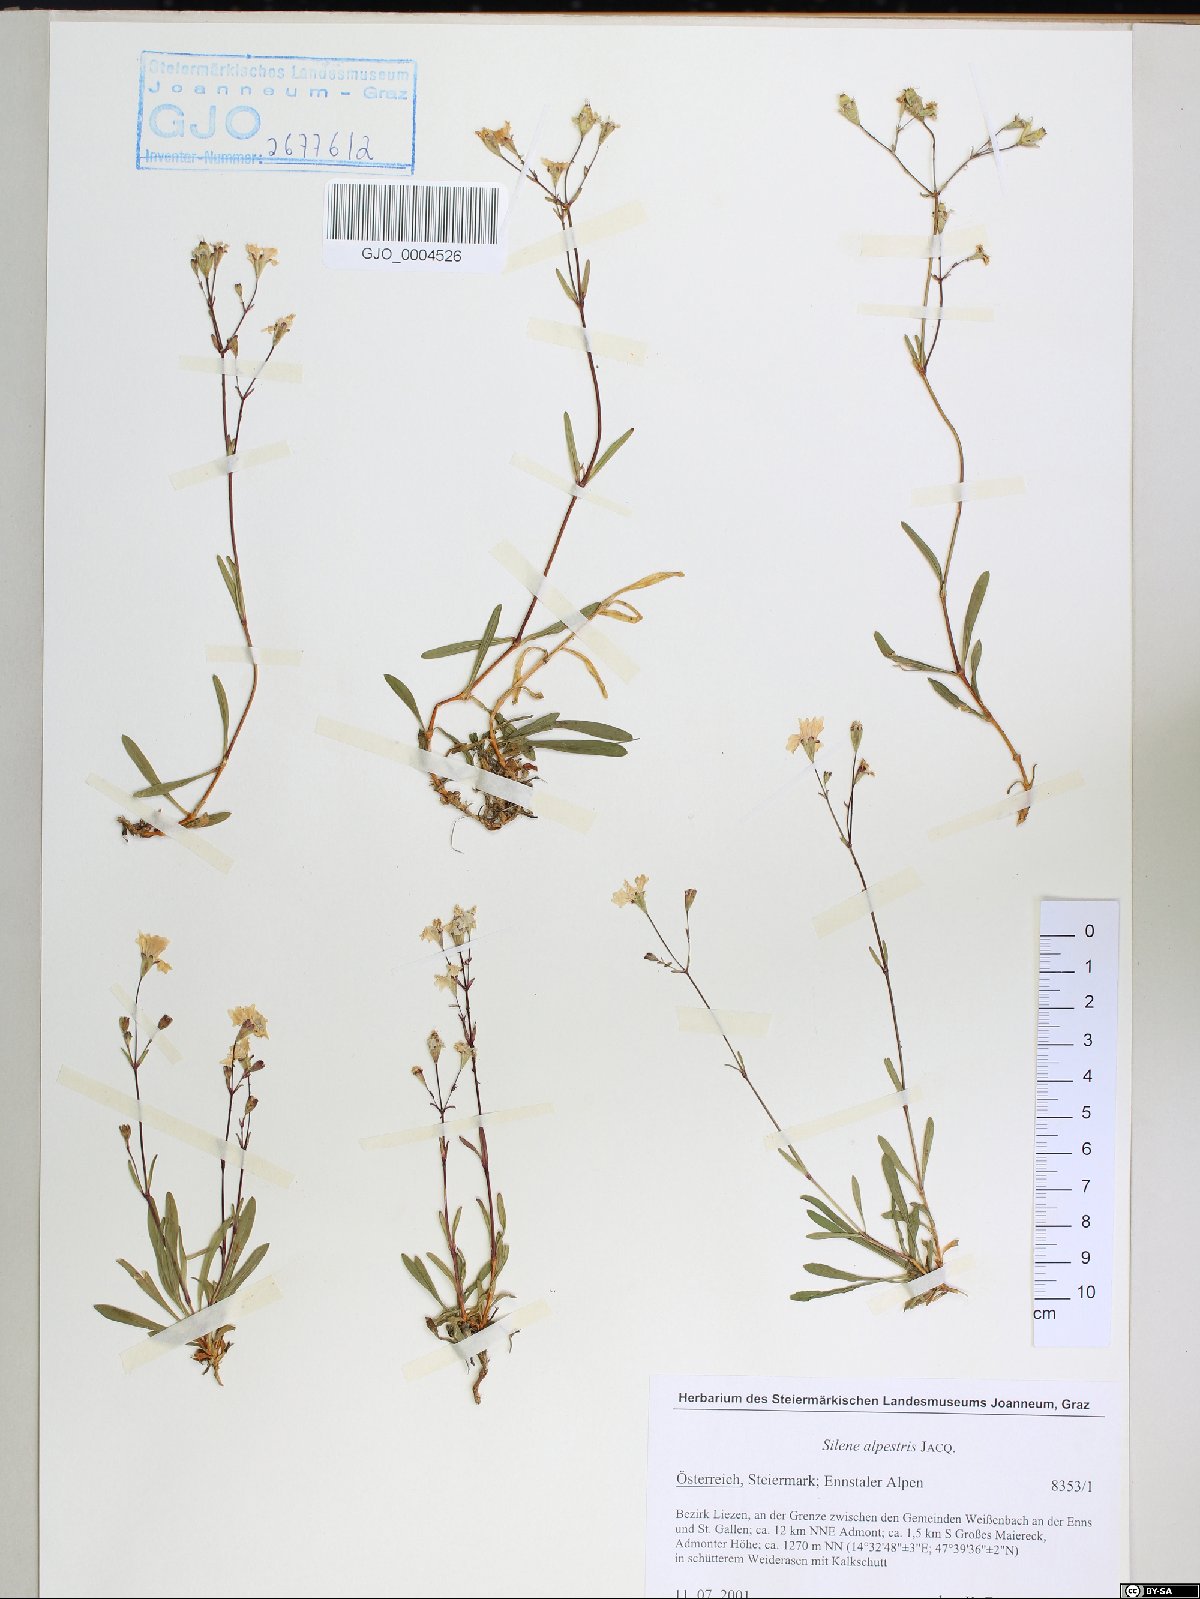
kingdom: Plantae
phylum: Tracheophyta
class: Magnoliopsida
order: Caryophyllales
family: Caryophyllaceae
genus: Heliosperma
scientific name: Heliosperma alpestre
